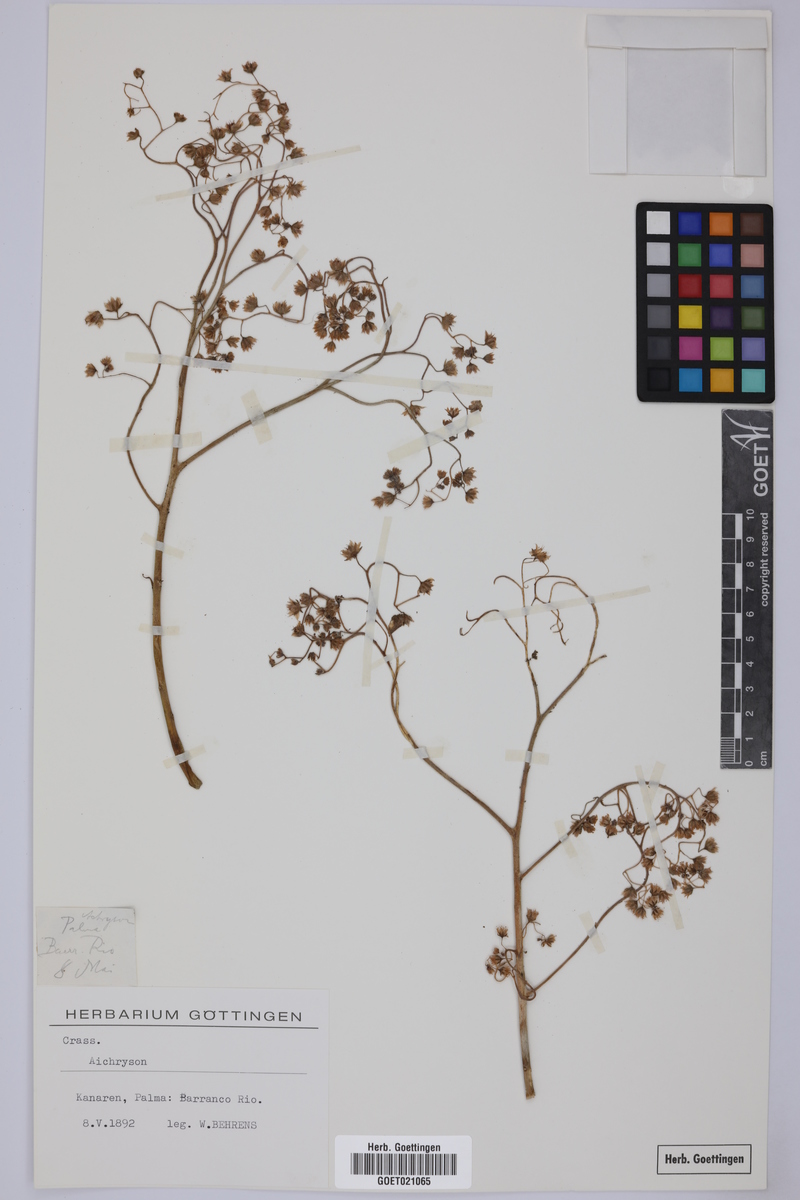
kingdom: Plantae
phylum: Tracheophyta
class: Magnoliopsida
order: Saxifragales
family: Crassulaceae
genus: Aichryson
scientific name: Aichryson
